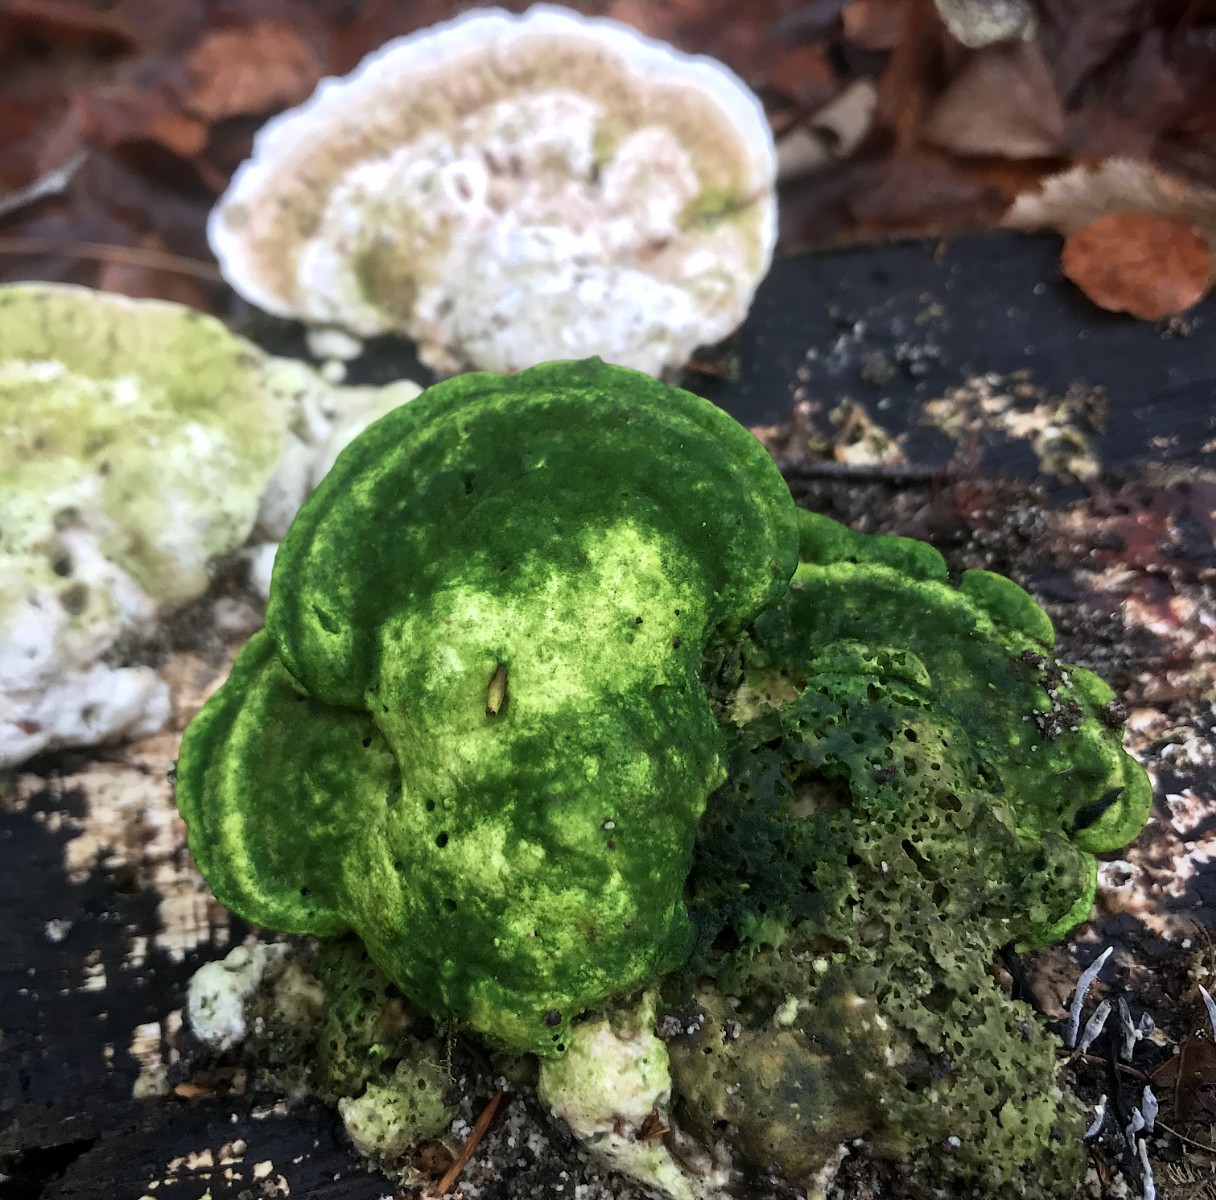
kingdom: Fungi
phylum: Basidiomycota
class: Agaricomycetes
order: Polyporales
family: Polyporaceae
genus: Trametes
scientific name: Trametes hirsuta
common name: håret læderporesvamp
